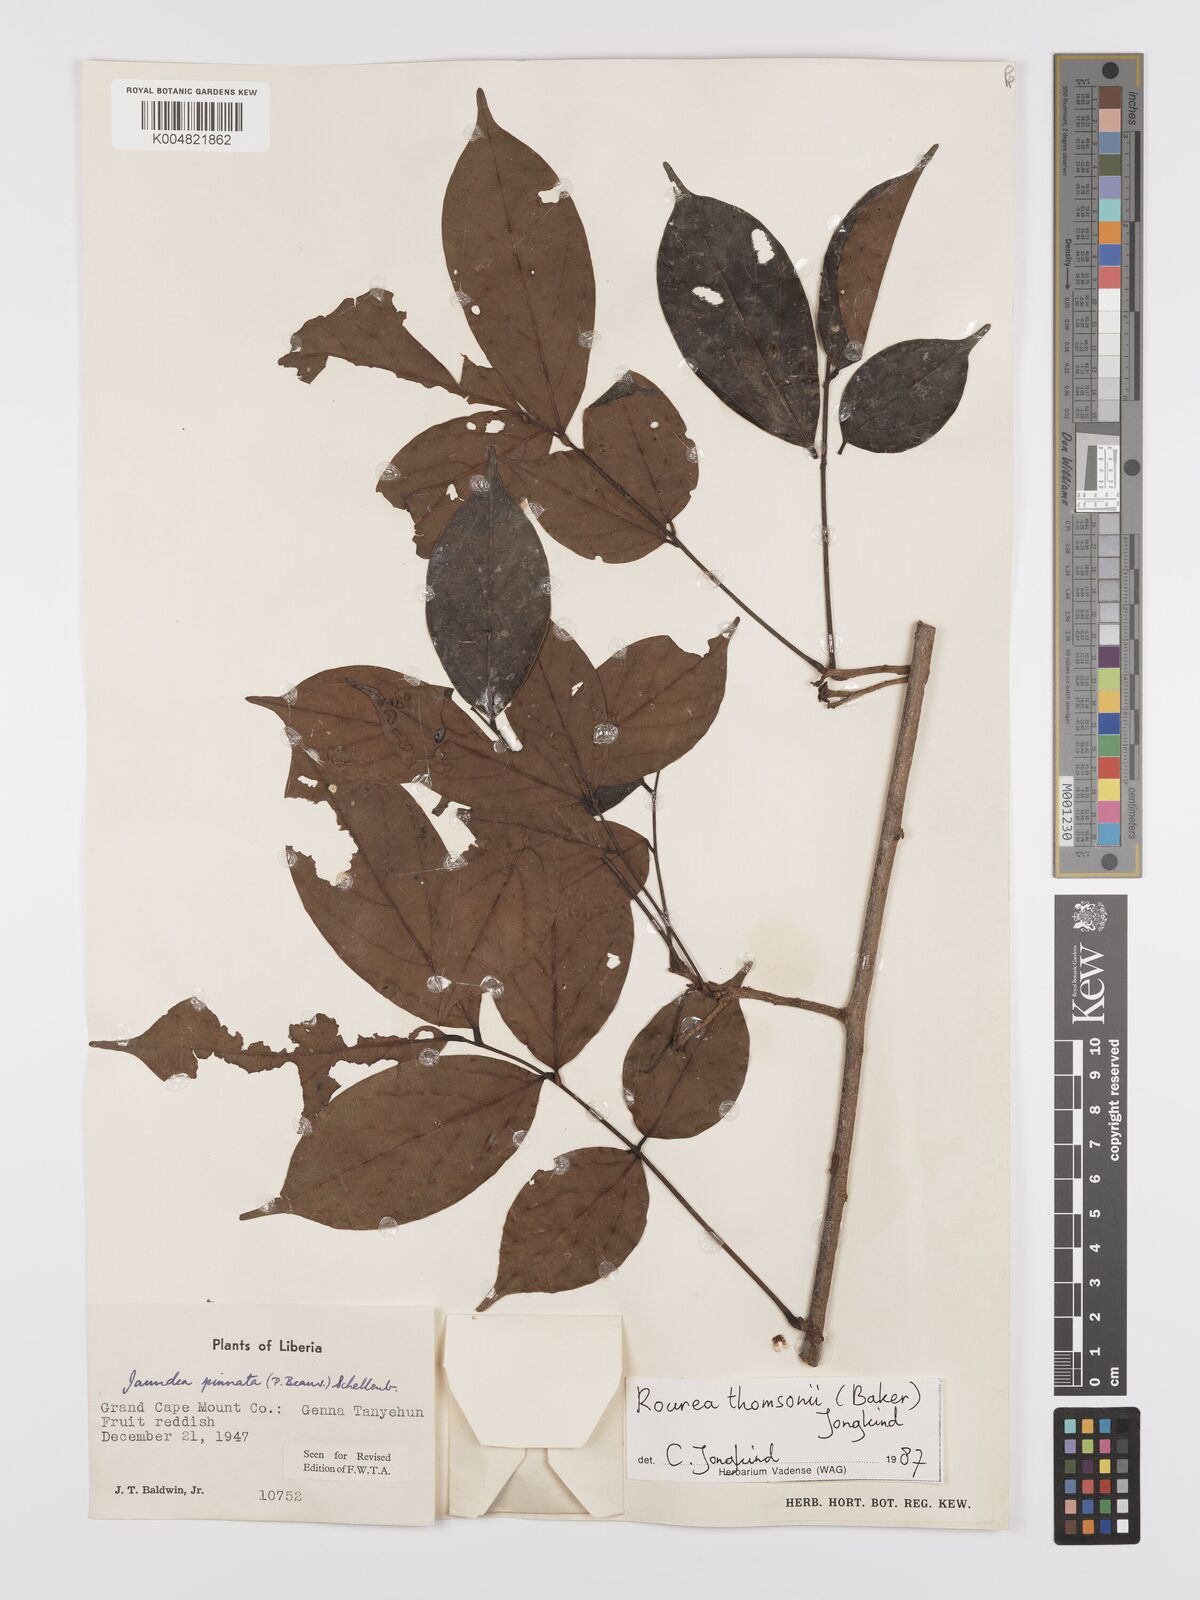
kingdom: Plantae
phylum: Tracheophyta
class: Magnoliopsida
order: Oxalidales
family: Connaraceae
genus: Rourea
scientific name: Rourea pinnata
